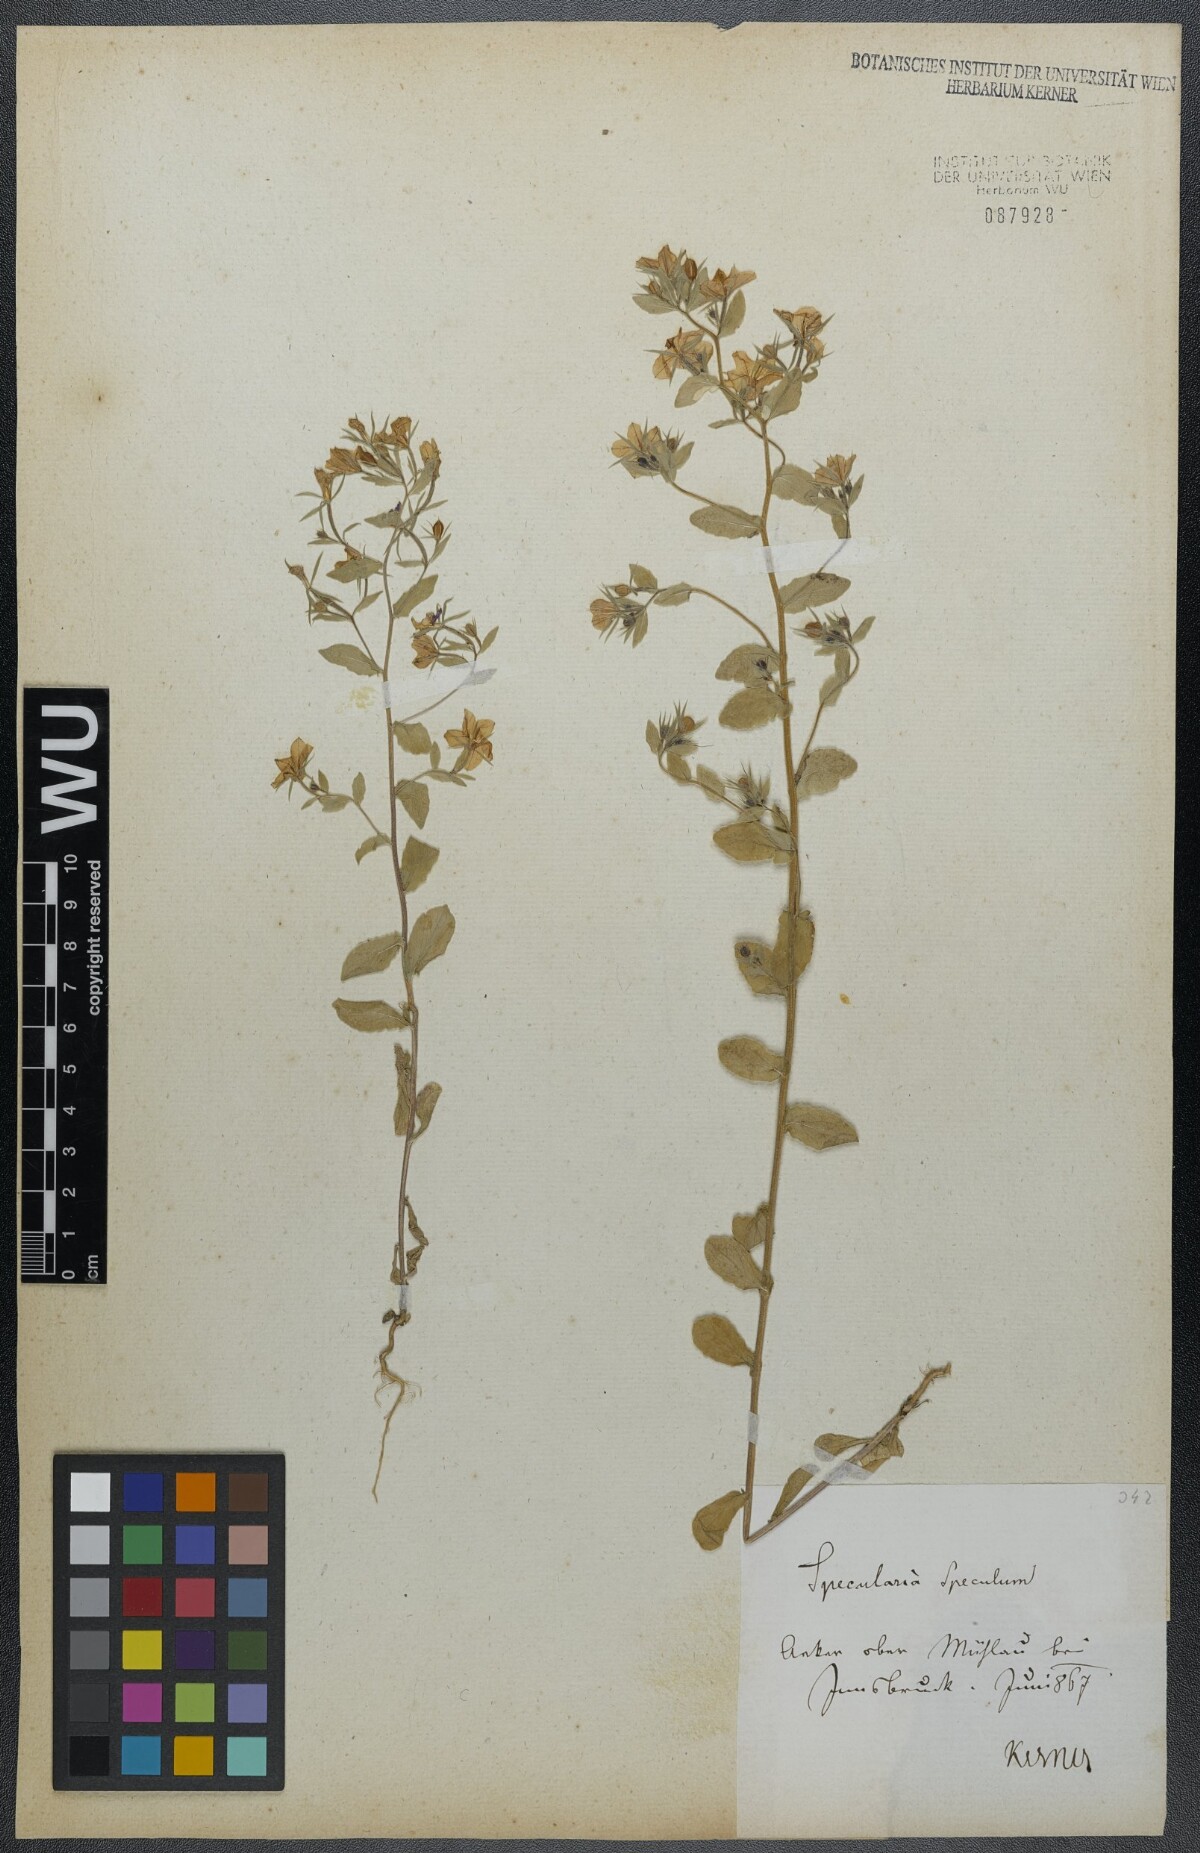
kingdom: Plantae
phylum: Tracheophyta
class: Magnoliopsida
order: Asterales
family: Campanulaceae
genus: Legousia
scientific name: Legousia speculum-veneris
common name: Large venus's-looking-glass
